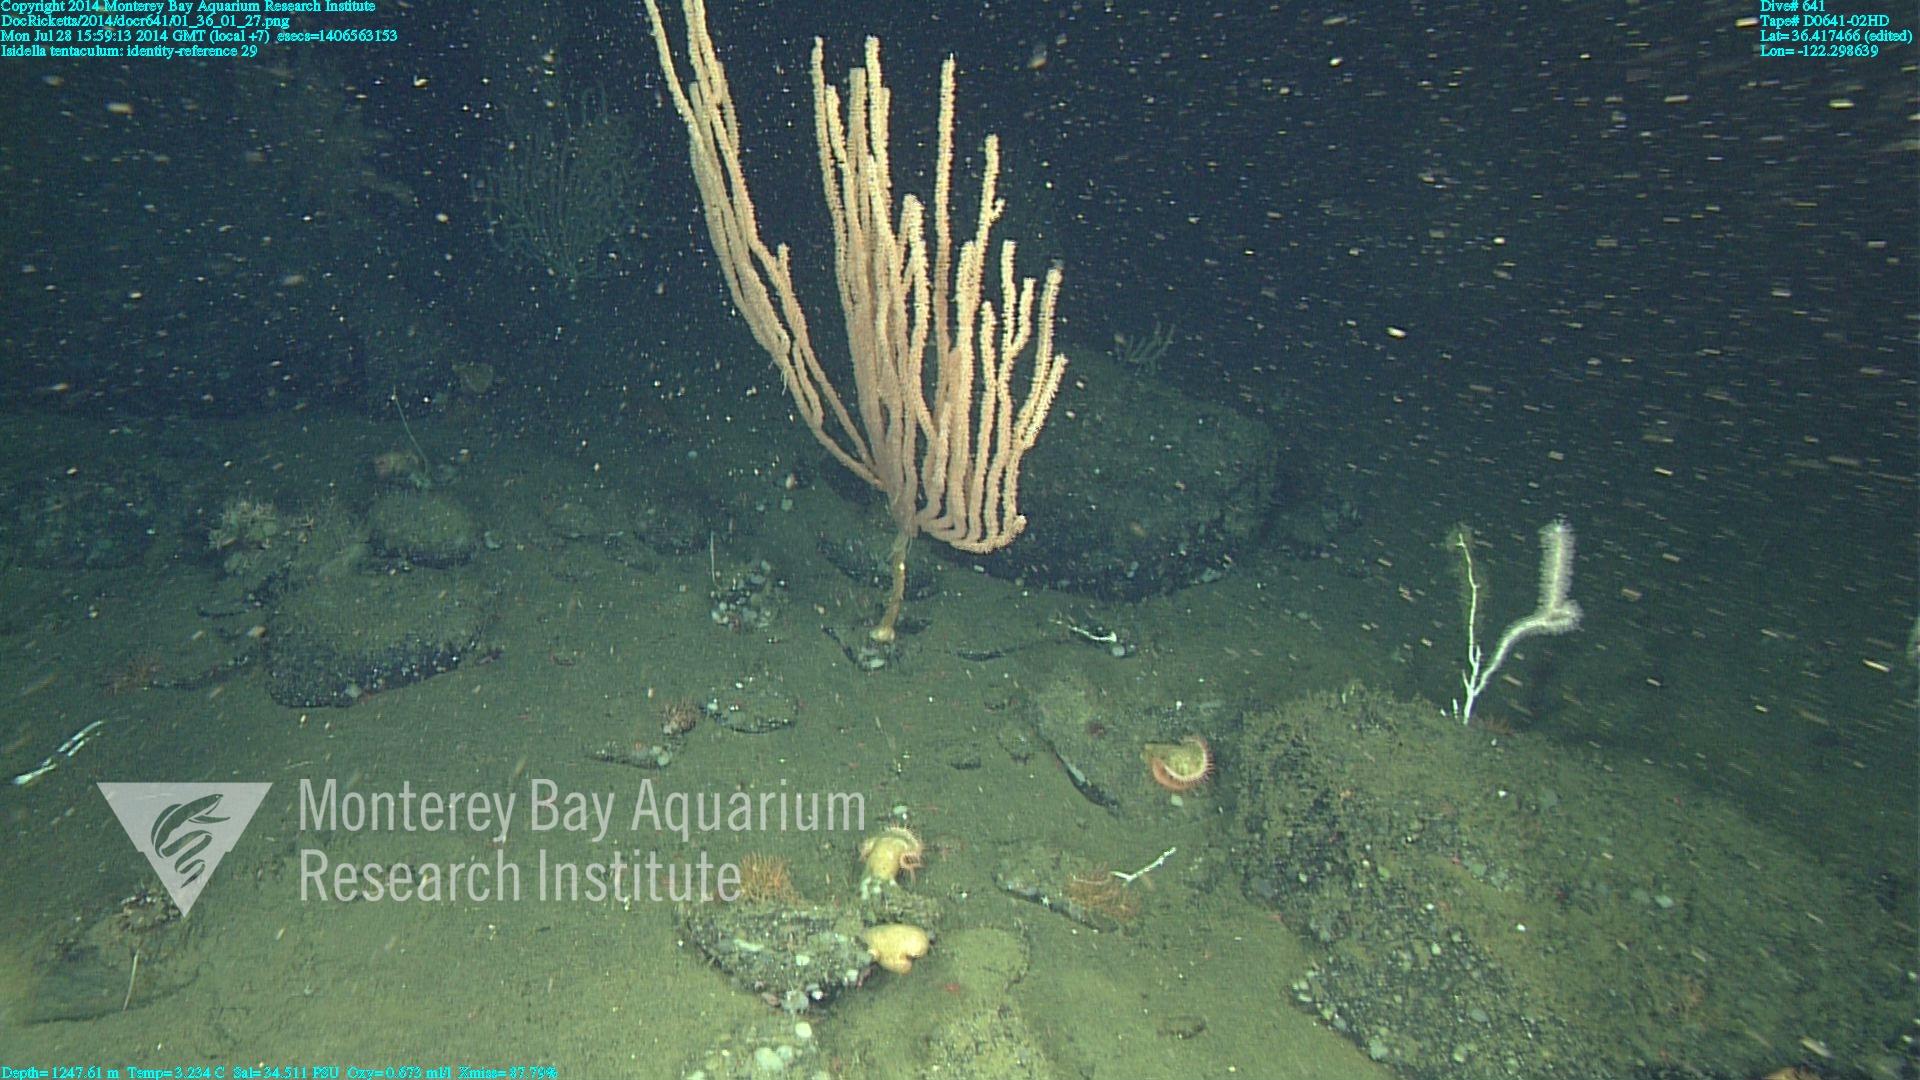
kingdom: Animalia
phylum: Cnidaria
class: Anthozoa
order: Scleralcyonacea
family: Keratoisididae
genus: Isidella
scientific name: Isidella tentaculum
